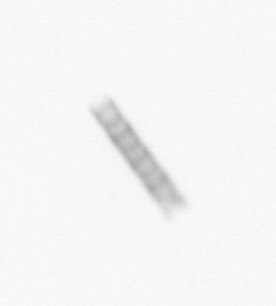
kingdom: Chromista
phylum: Ochrophyta
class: Bacillariophyceae
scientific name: Bacillariophyceae
